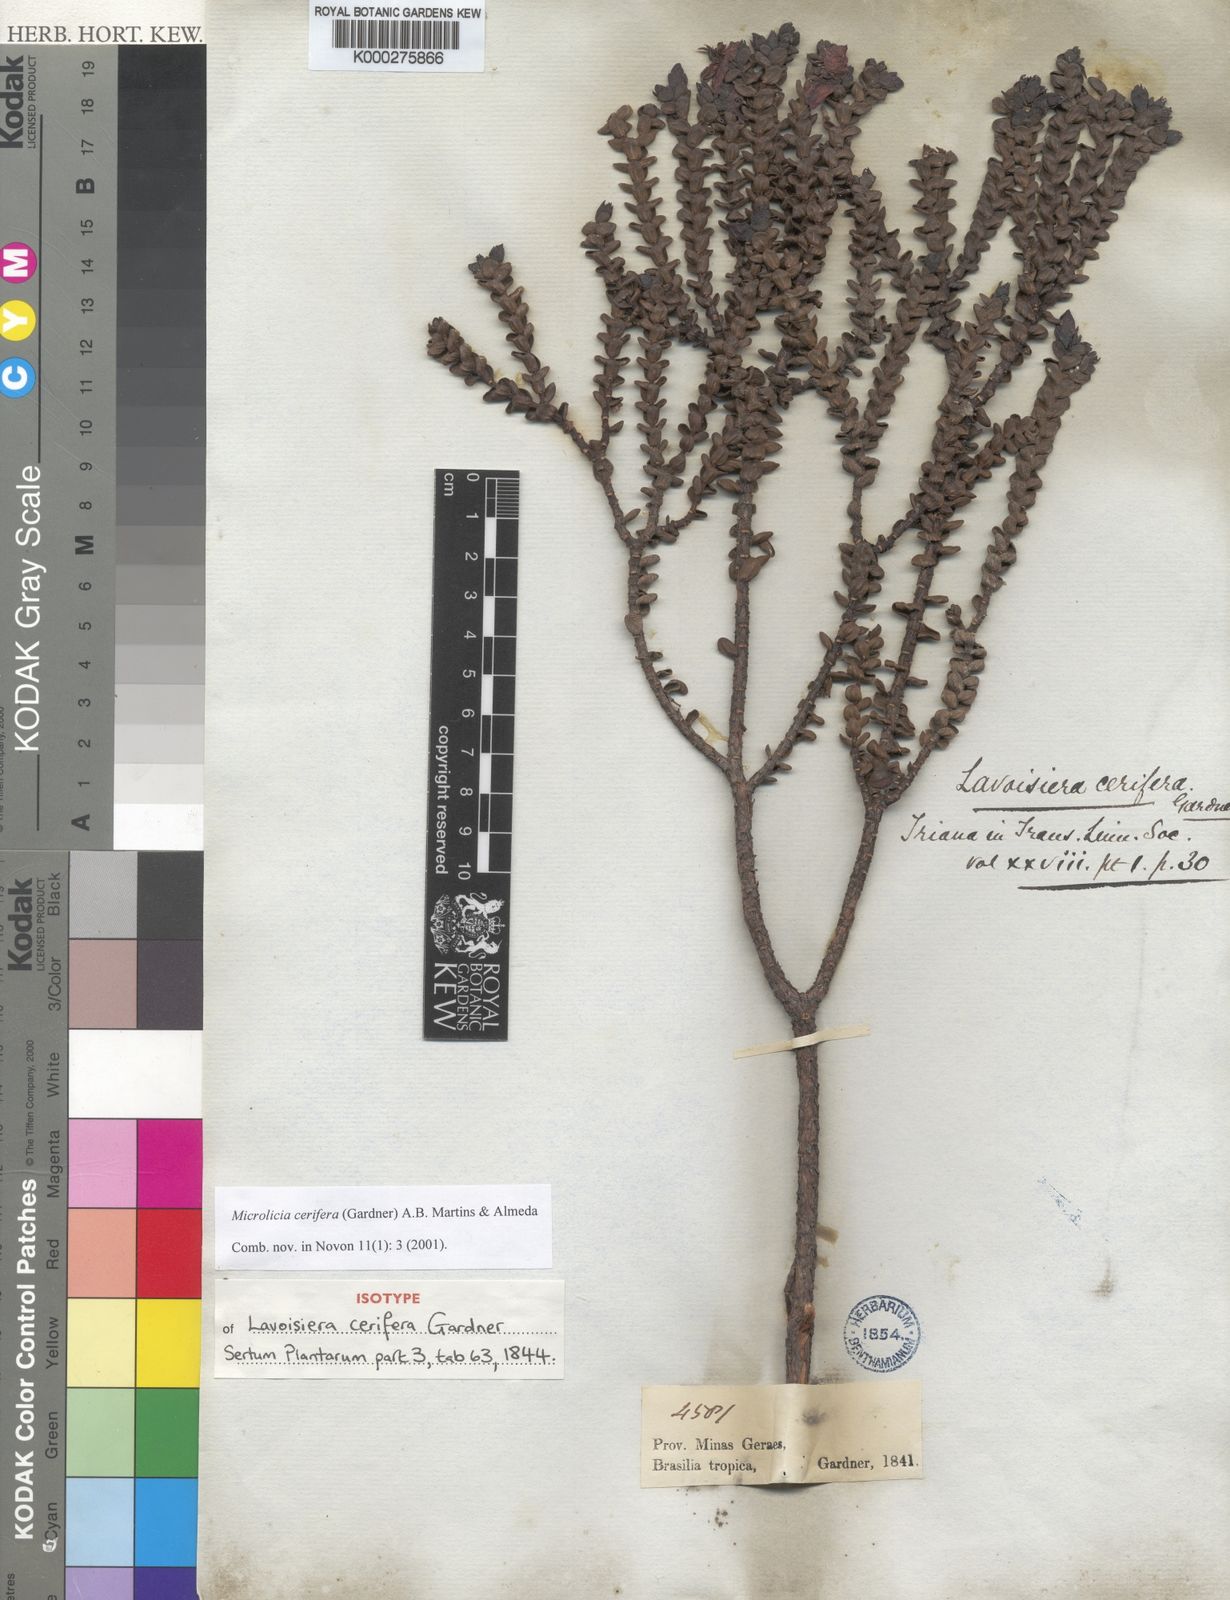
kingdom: Plantae
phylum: Tracheophyta
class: Magnoliopsida
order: Myrtales
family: Melastomataceae
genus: Microlicia
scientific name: Microlicia cerifera
